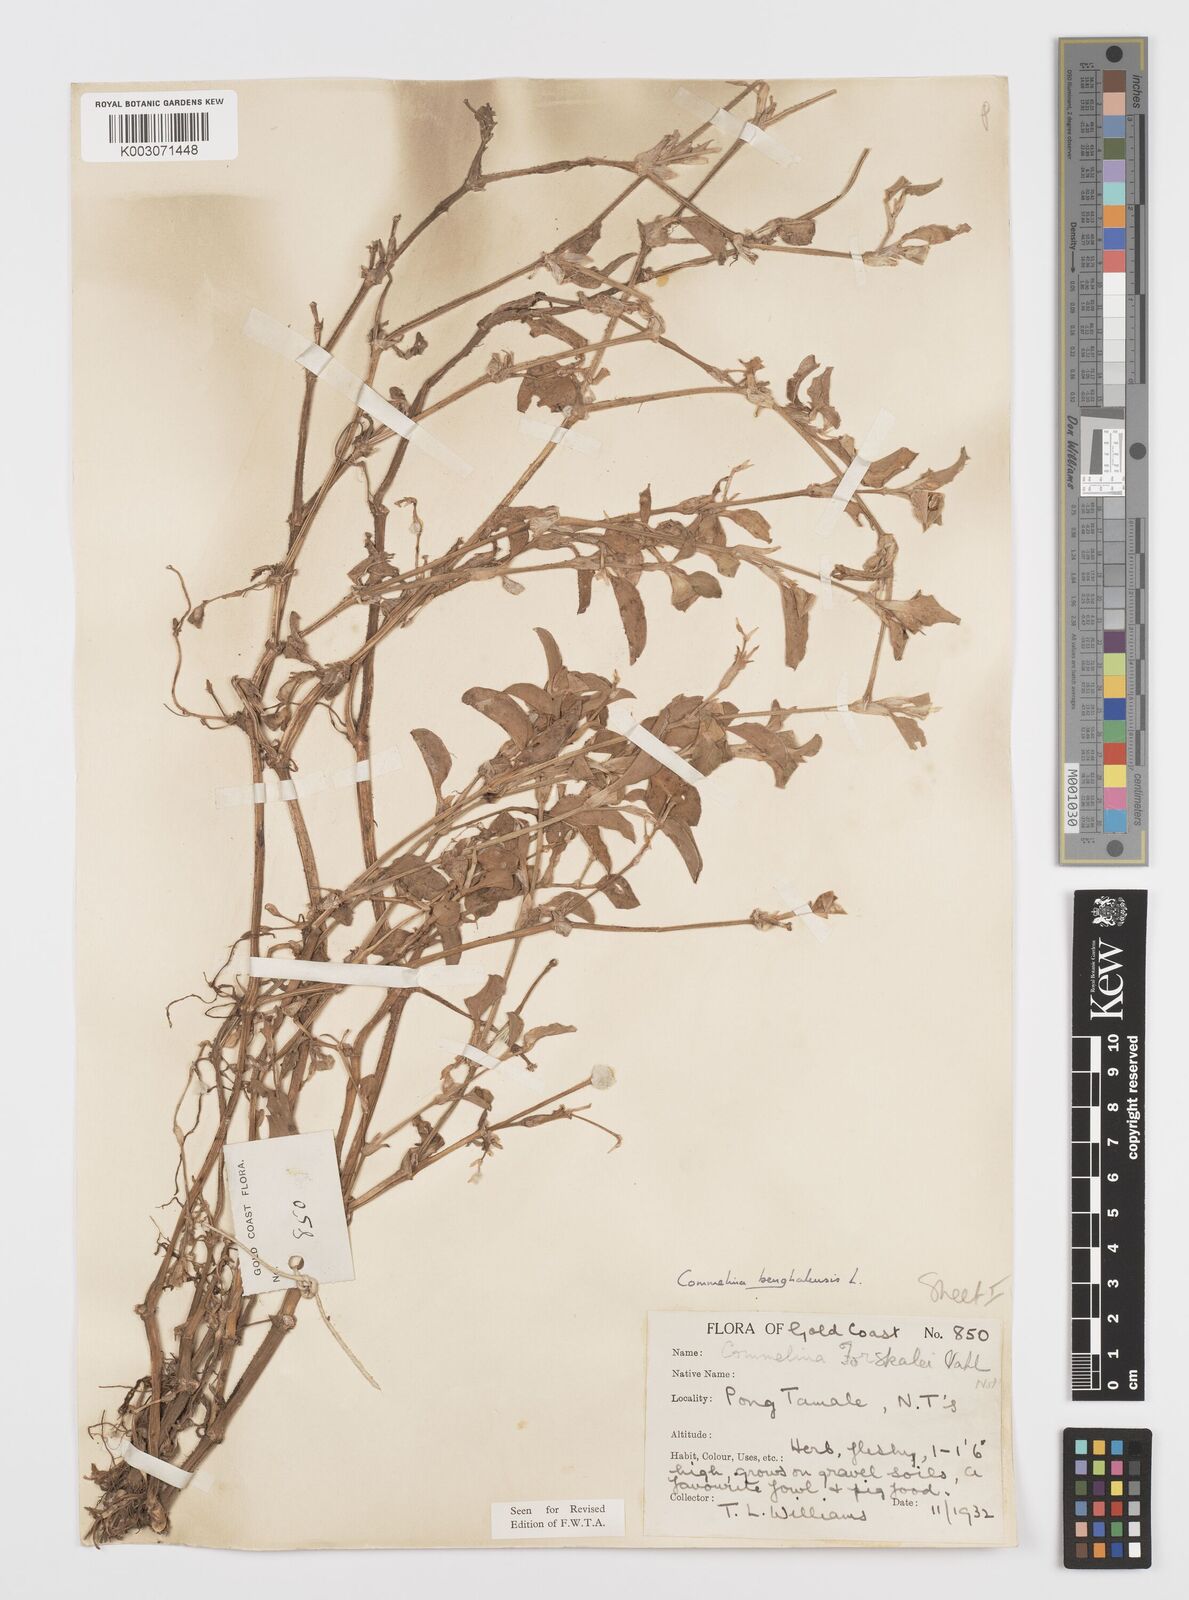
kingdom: Plantae
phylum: Tracheophyta
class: Liliopsida
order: Commelinales
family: Commelinaceae
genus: Commelina
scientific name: Commelina benghalensis
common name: Jio
